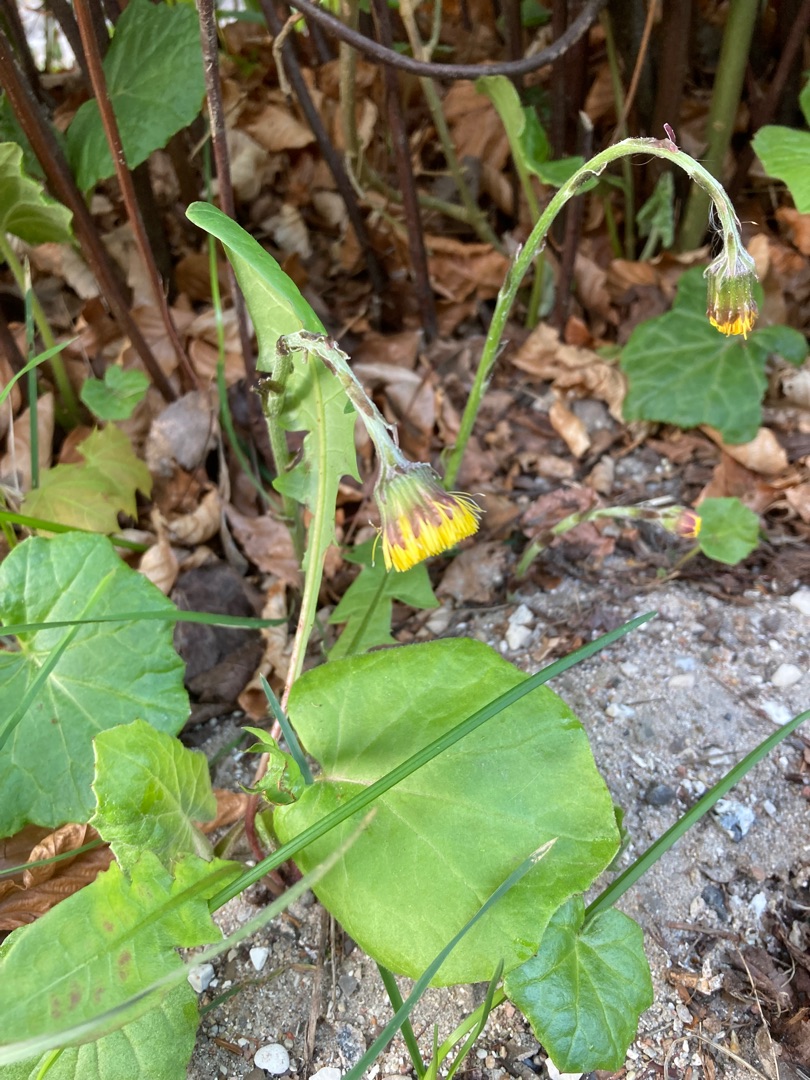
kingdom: Plantae
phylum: Tracheophyta
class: Magnoliopsida
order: Asterales
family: Asteraceae
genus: Tussilago
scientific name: Tussilago farfara
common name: Følfod
